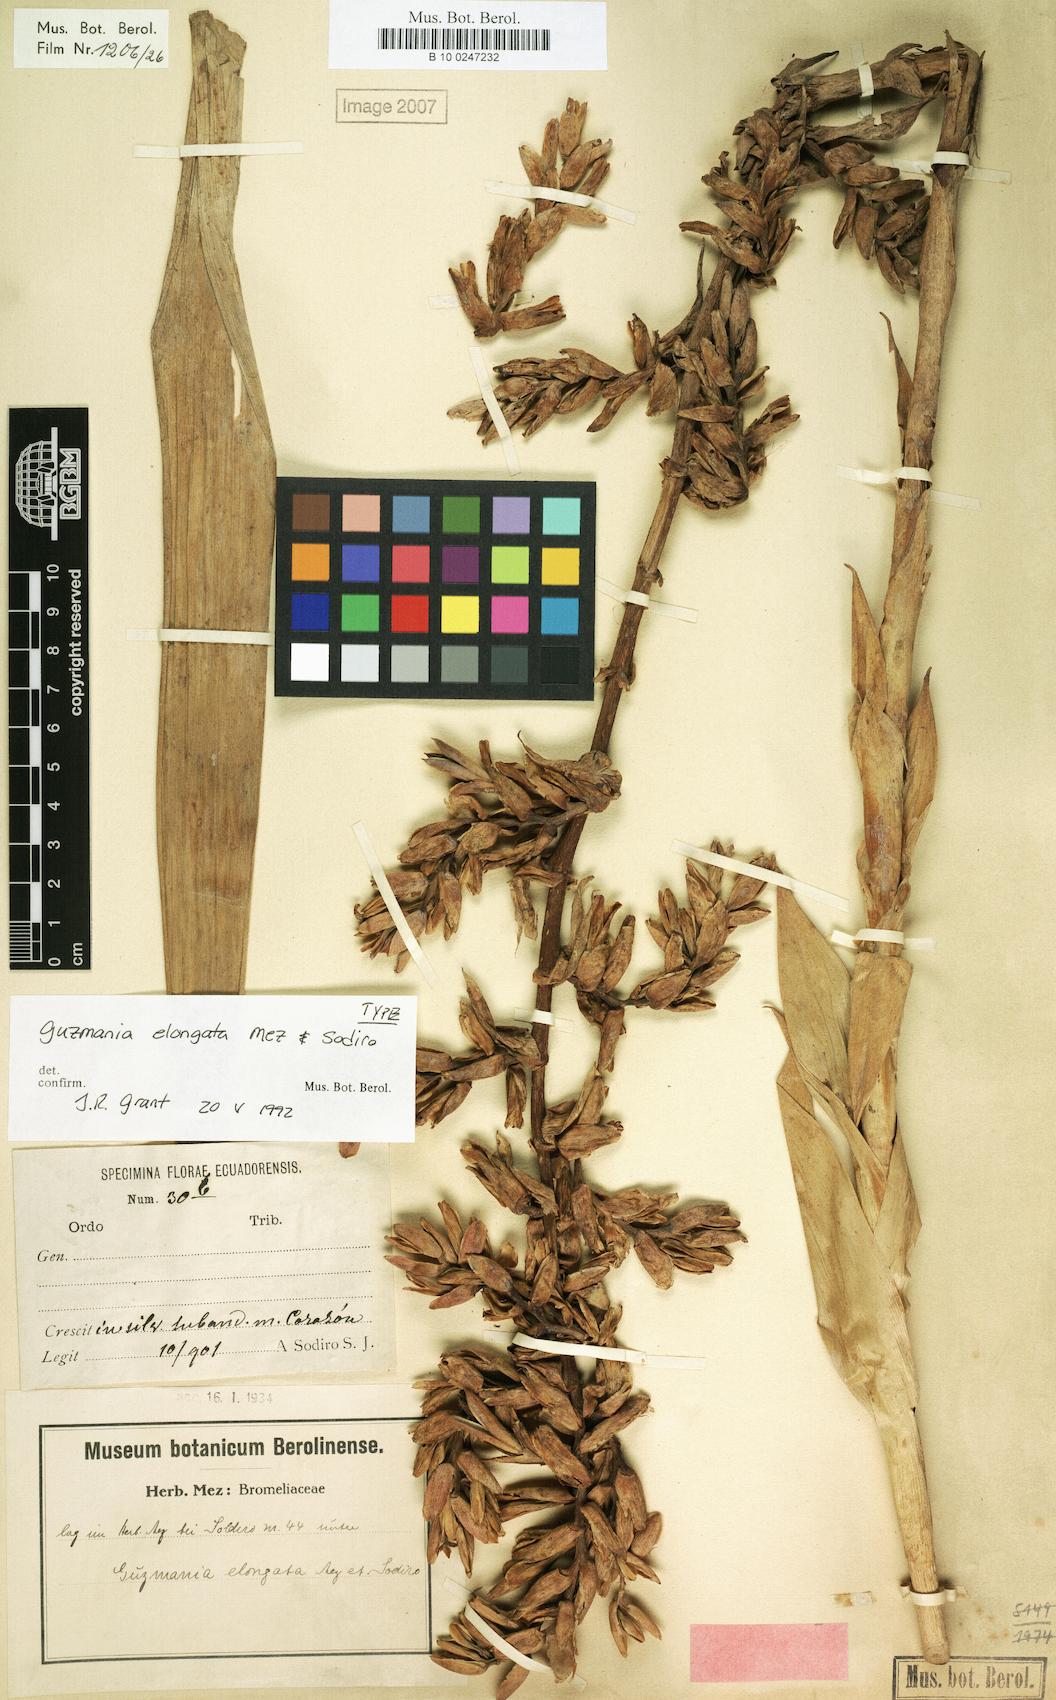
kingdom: Plantae
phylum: Tracheophyta
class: Liliopsida
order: Poales
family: Bromeliaceae
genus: Guzmania
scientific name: Guzmania bakeri
